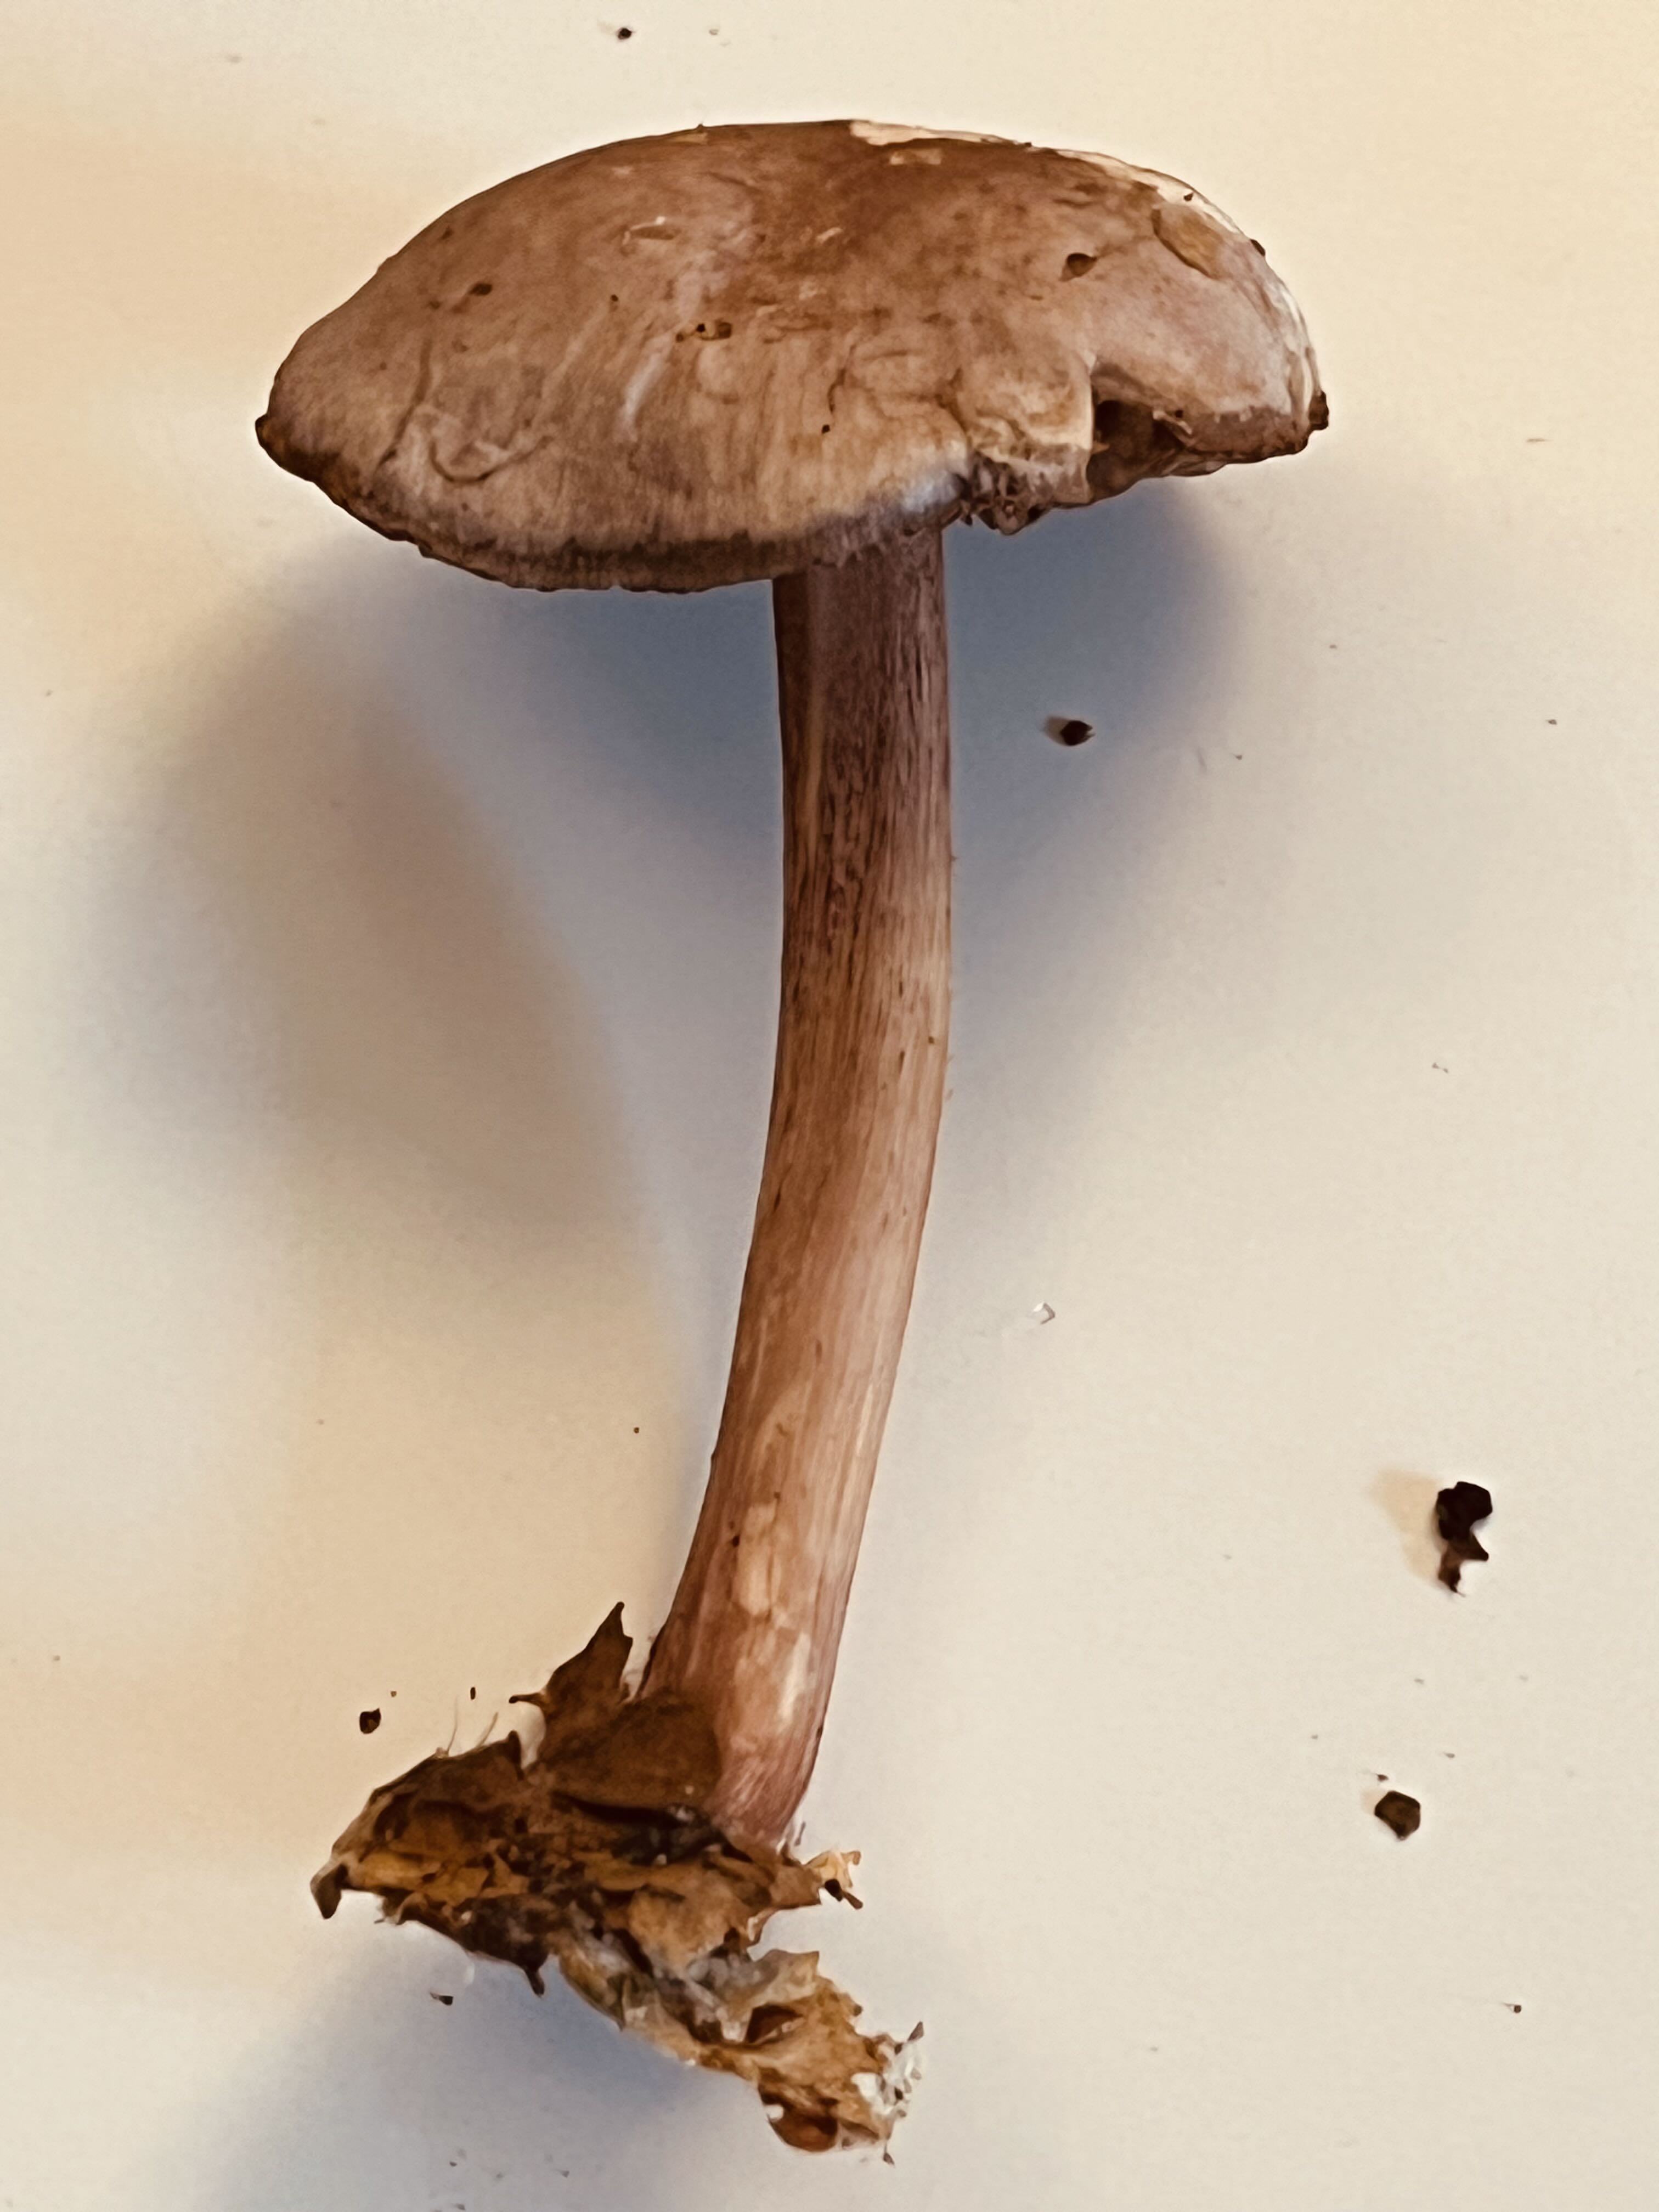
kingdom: Fungi
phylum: Basidiomycota
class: Agaricomycetes
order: Agaricales
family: Mycenaceae
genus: Mycena
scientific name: Mycena pelianthina
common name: mørkbladet huesvamp
